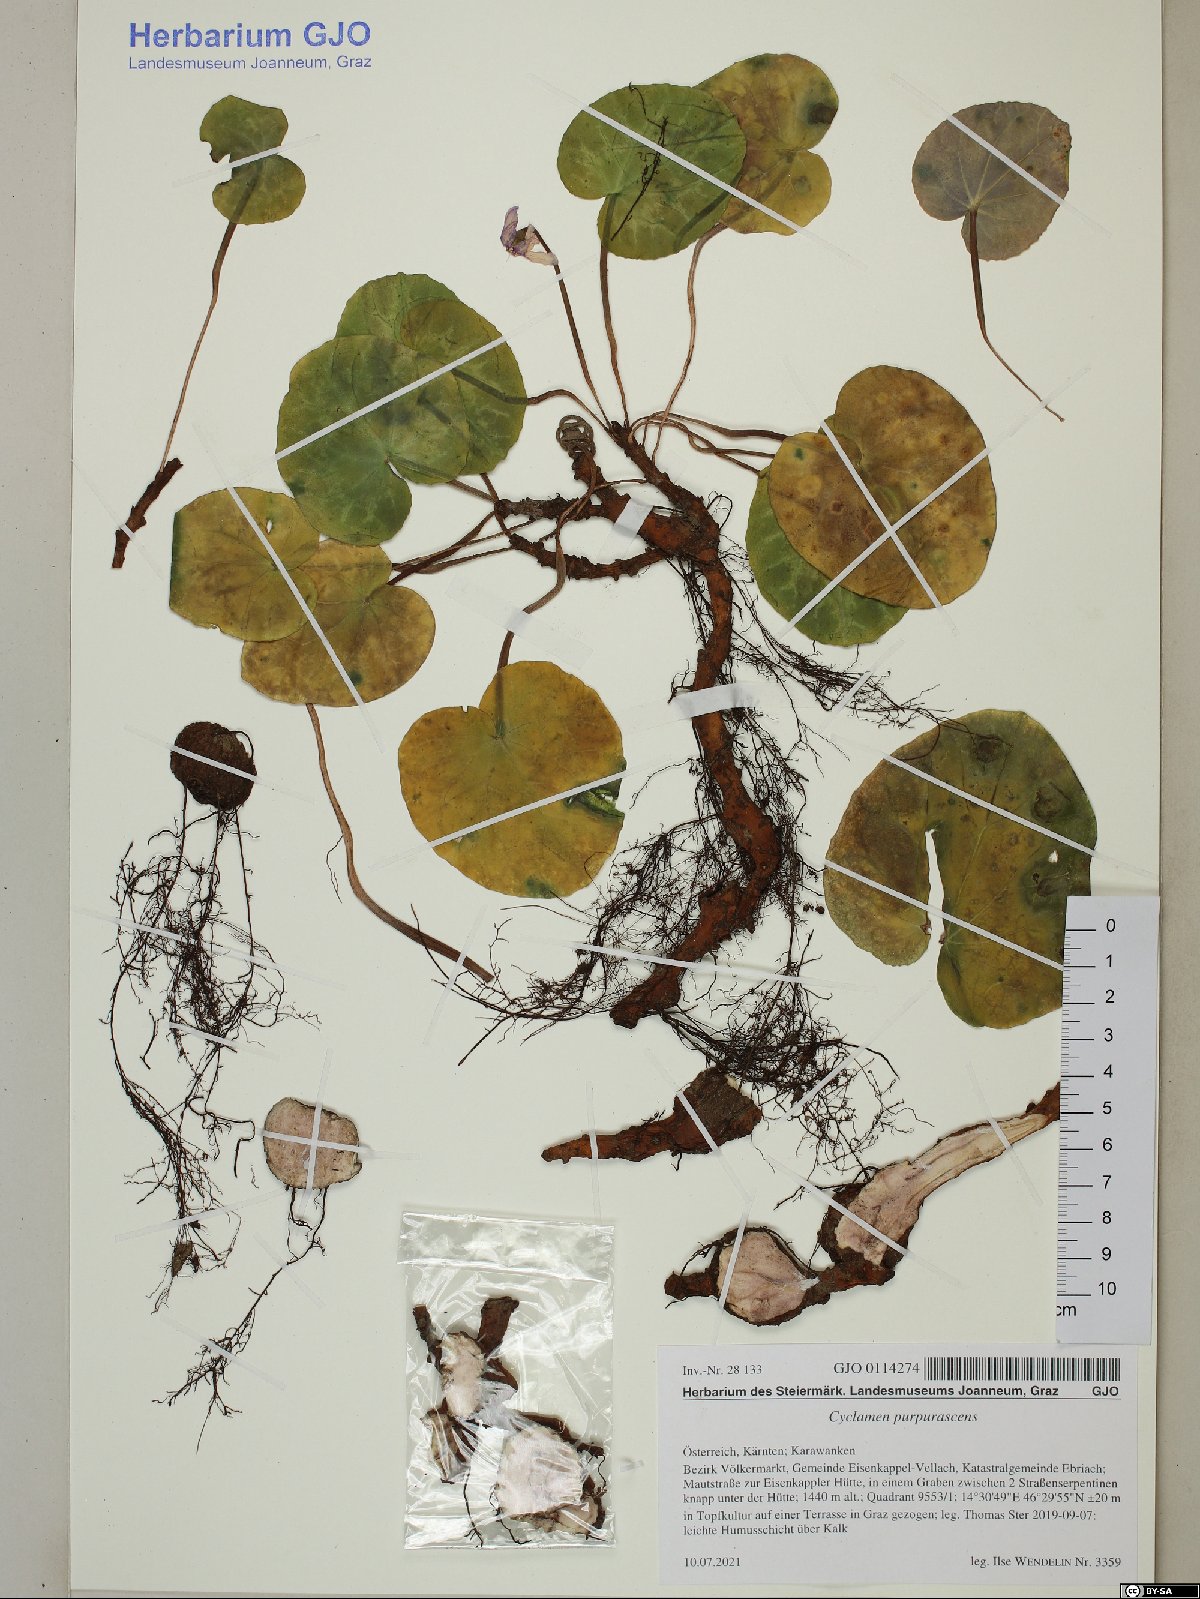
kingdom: Plantae
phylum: Tracheophyta
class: Magnoliopsida
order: Ericales
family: Primulaceae
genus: Cyclamen
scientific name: Cyclamen purpurascens
